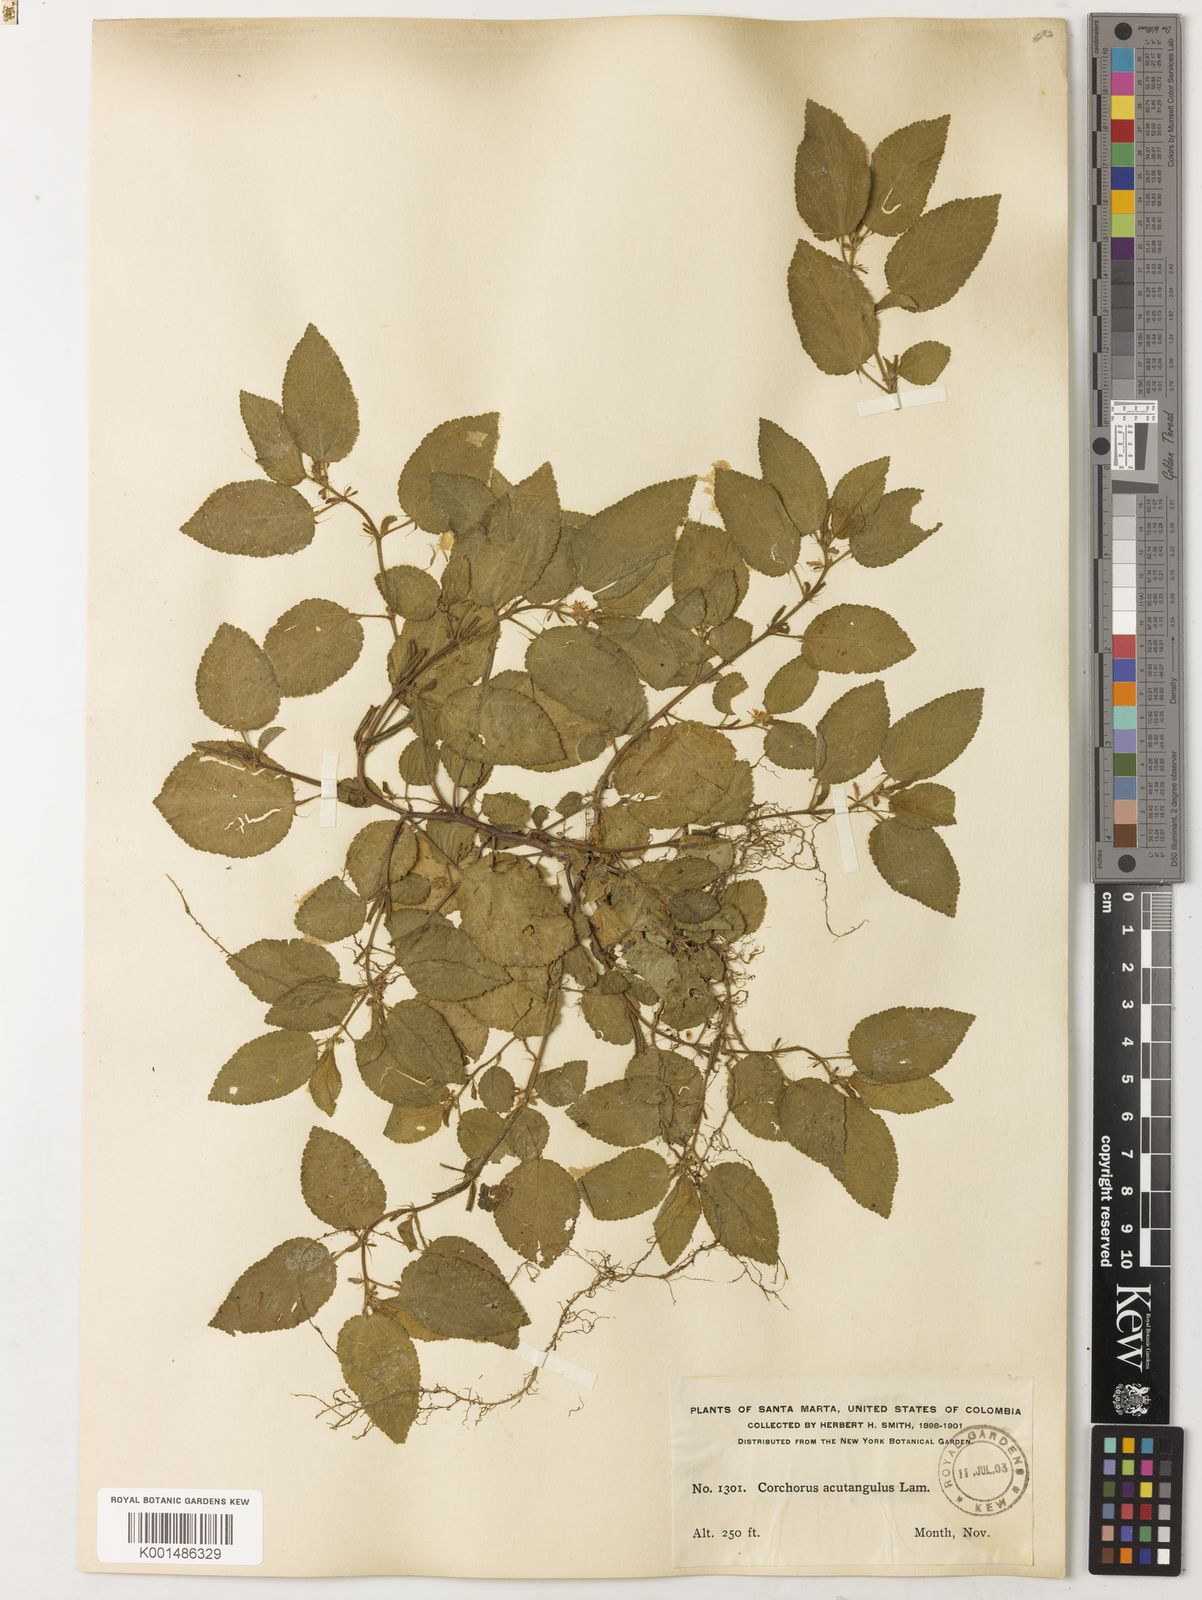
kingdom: Plantae
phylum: Tracheophyta
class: Magnoliopsida
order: Malvales
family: Malvaceae
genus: Corchorus
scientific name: Corchorus aestuans
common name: Jute
